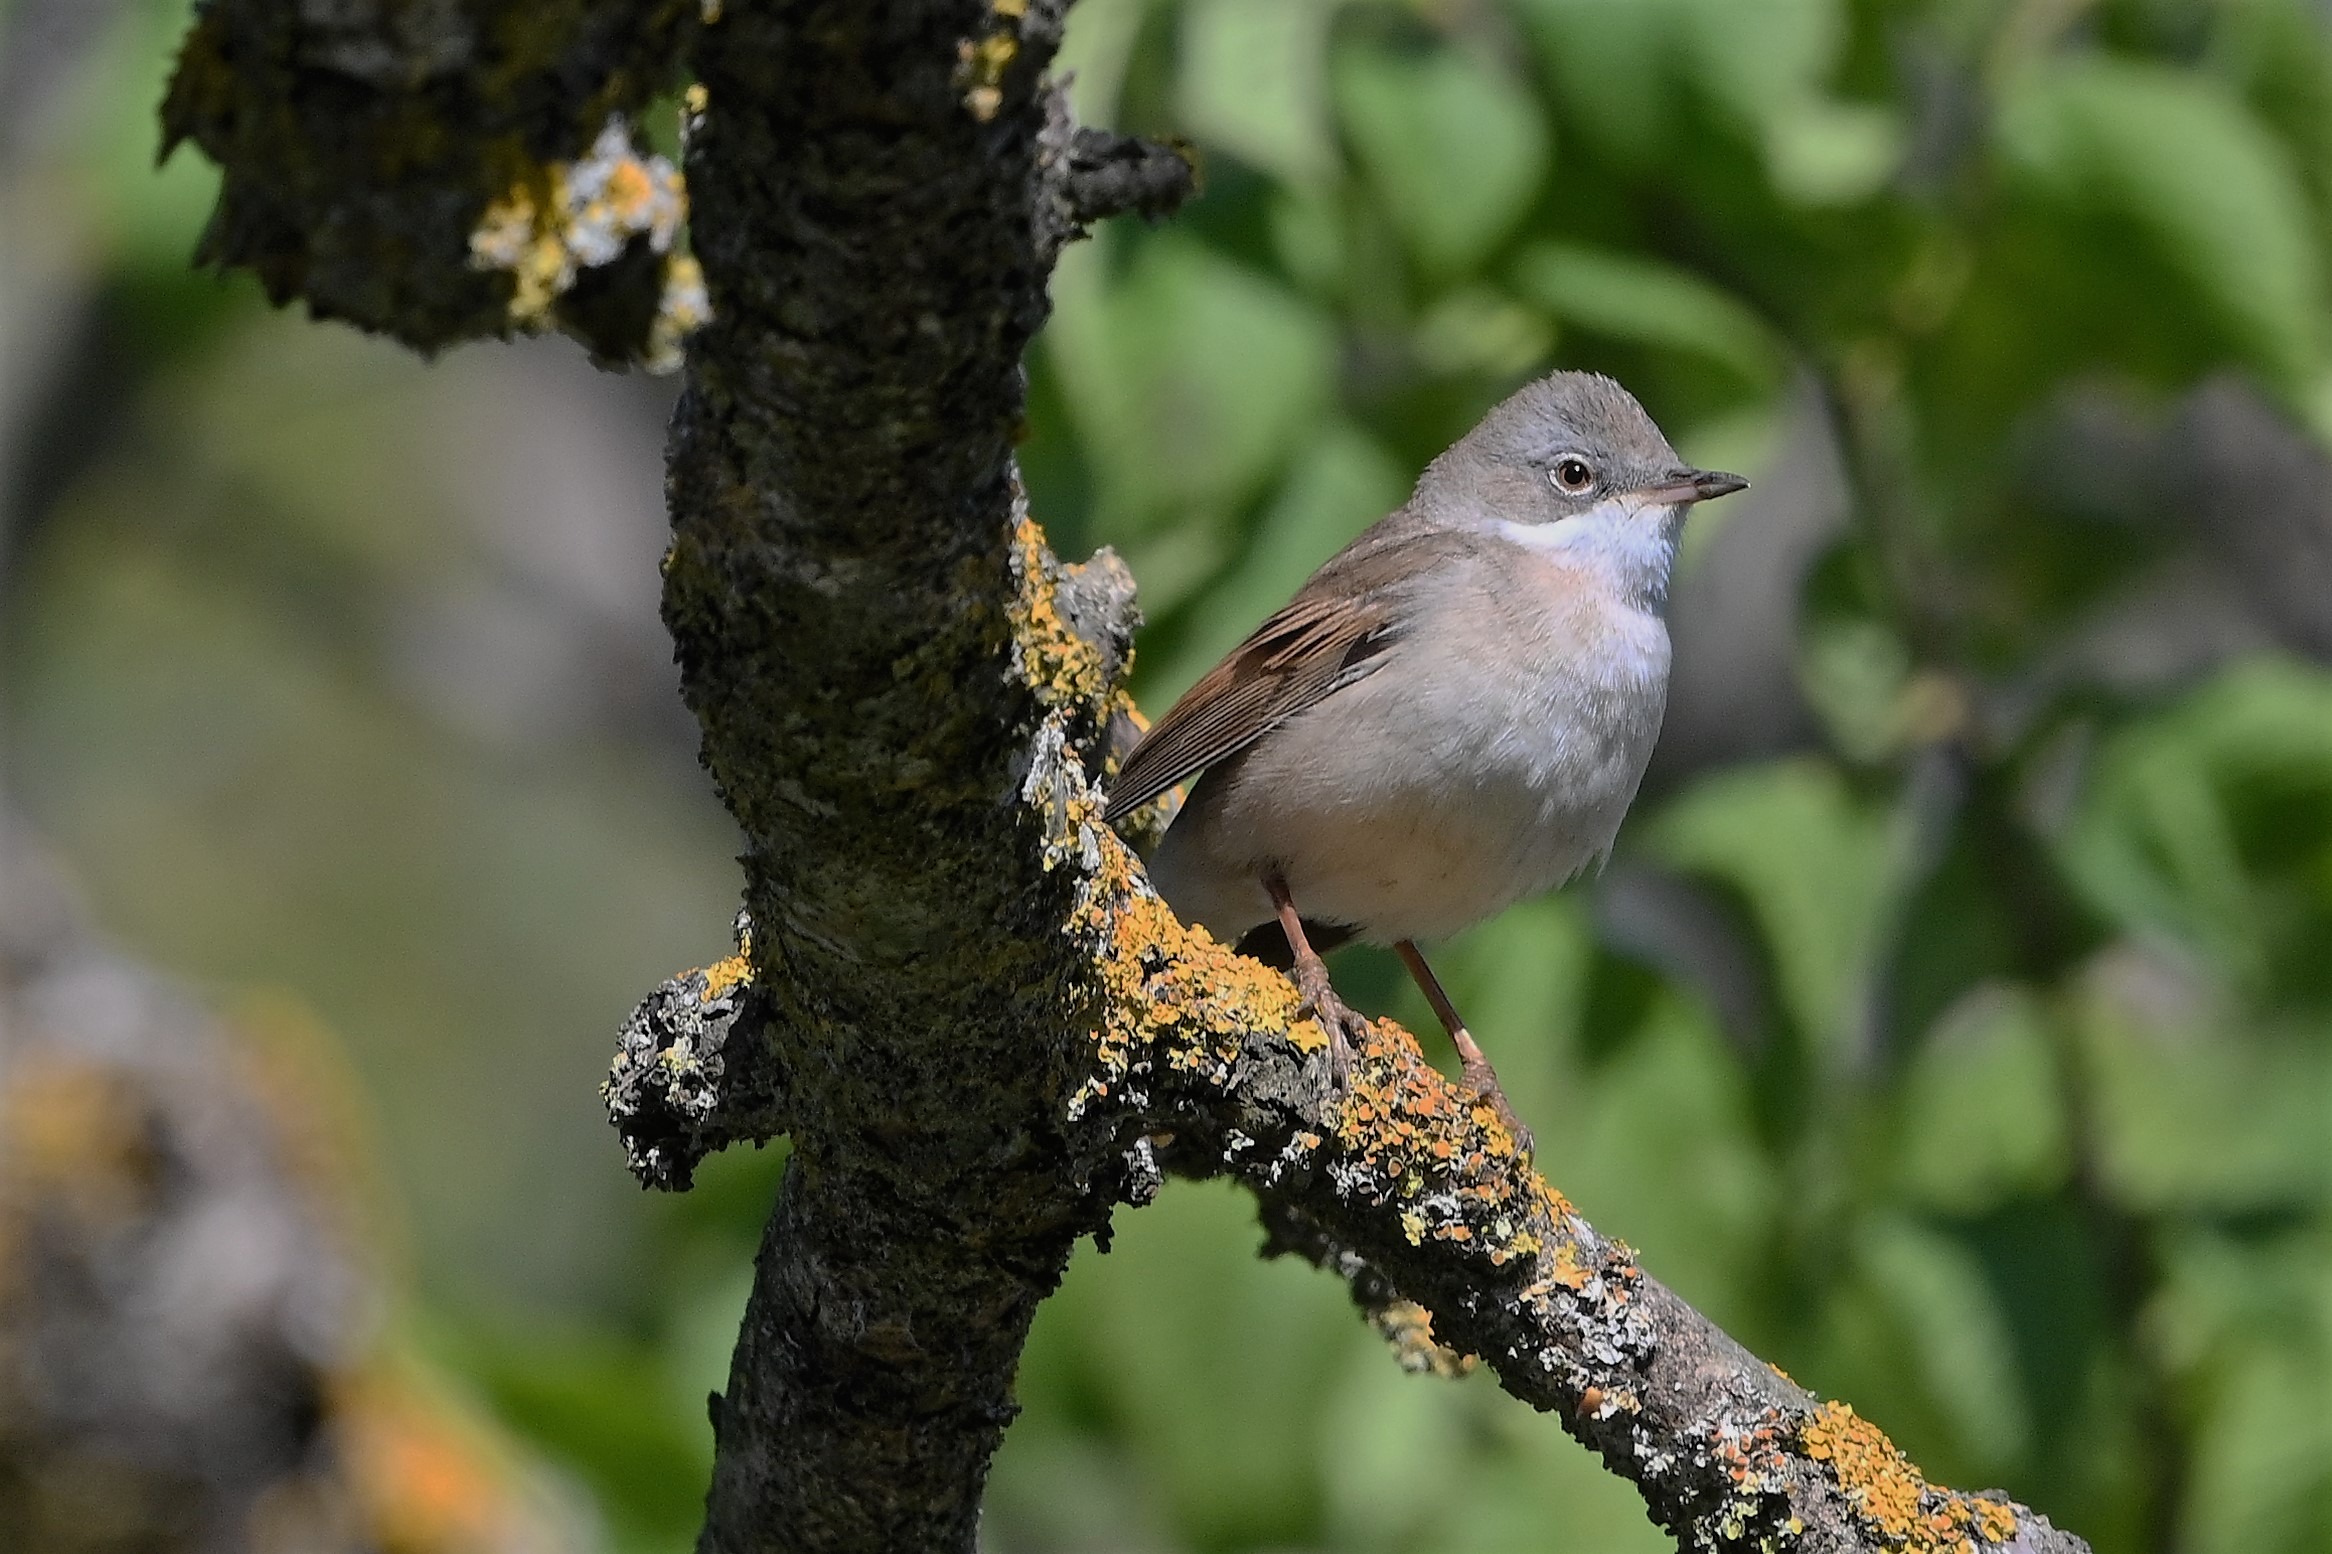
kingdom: Animalia
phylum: Chordata
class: Aves
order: Passeriformes
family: Sylviidae
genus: Sylvia
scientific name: Sylvia communis
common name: Tornsanger
